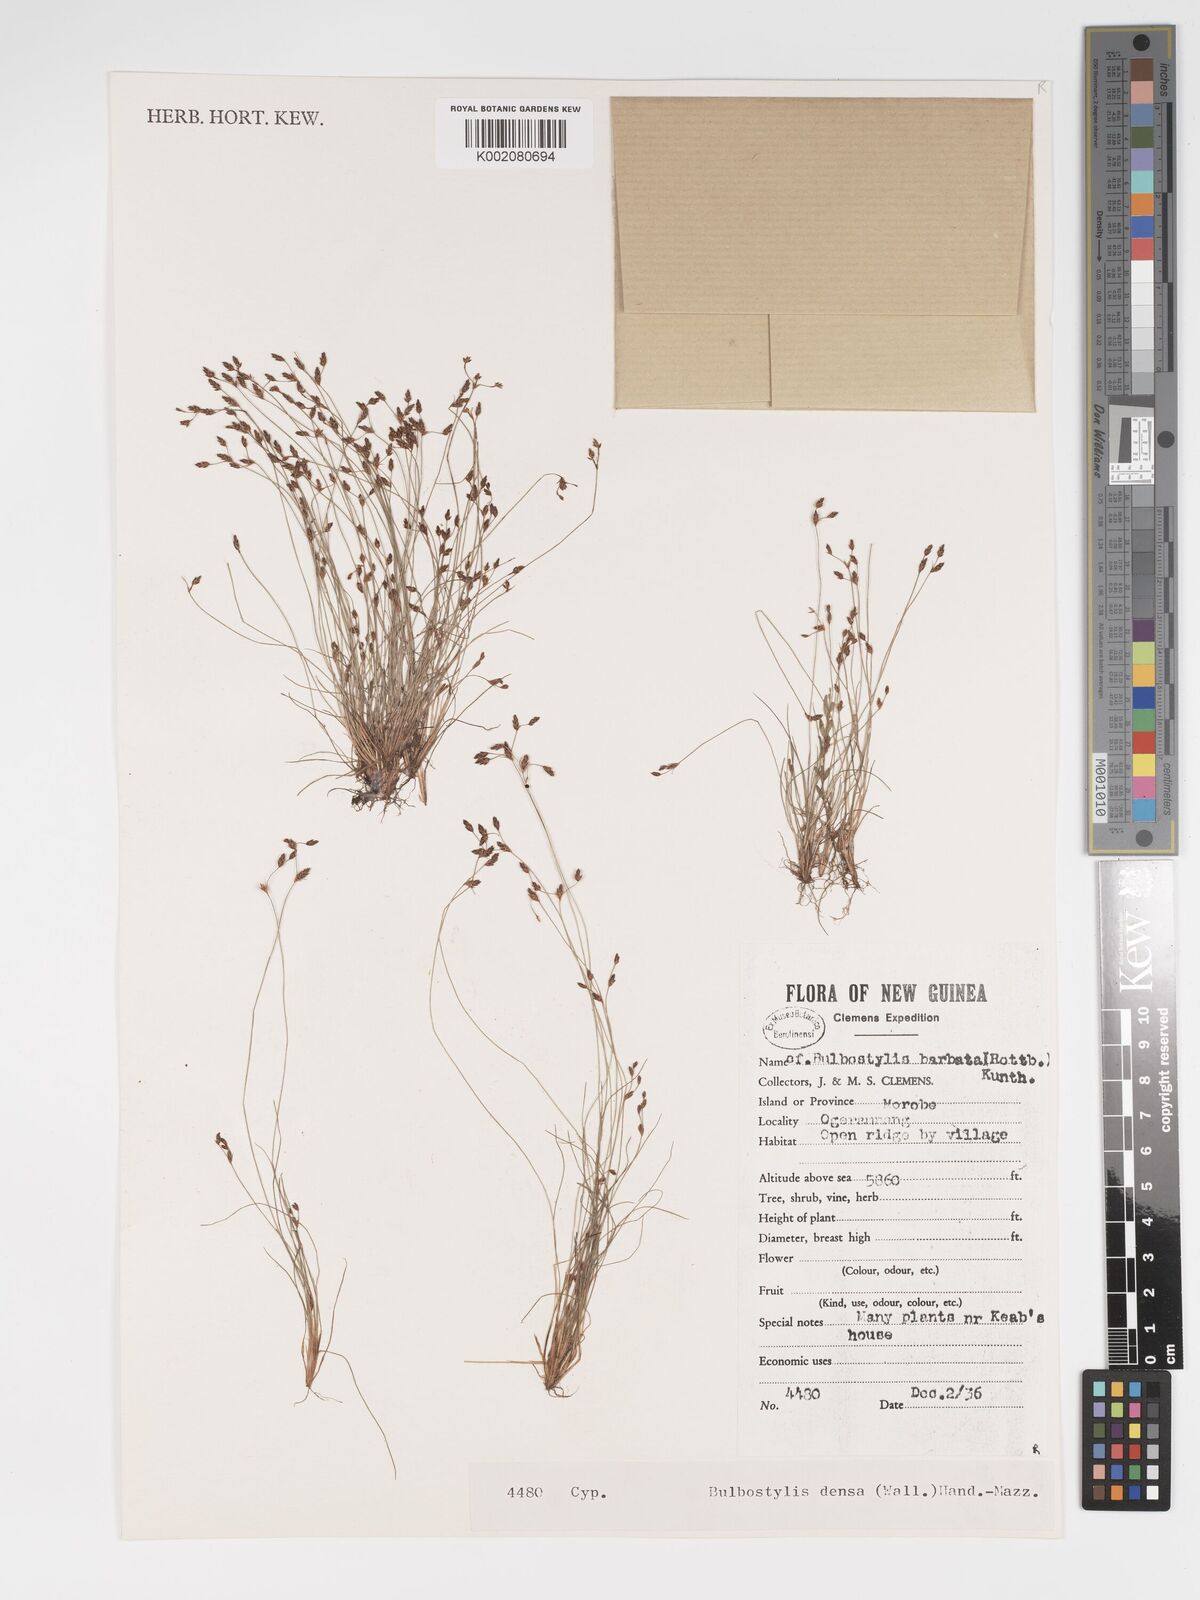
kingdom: Plantae
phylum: Tracheophyta
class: Liliopsida
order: Poales
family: Cyperaceae
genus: Bulbostylis
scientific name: Bulbostylis densa
